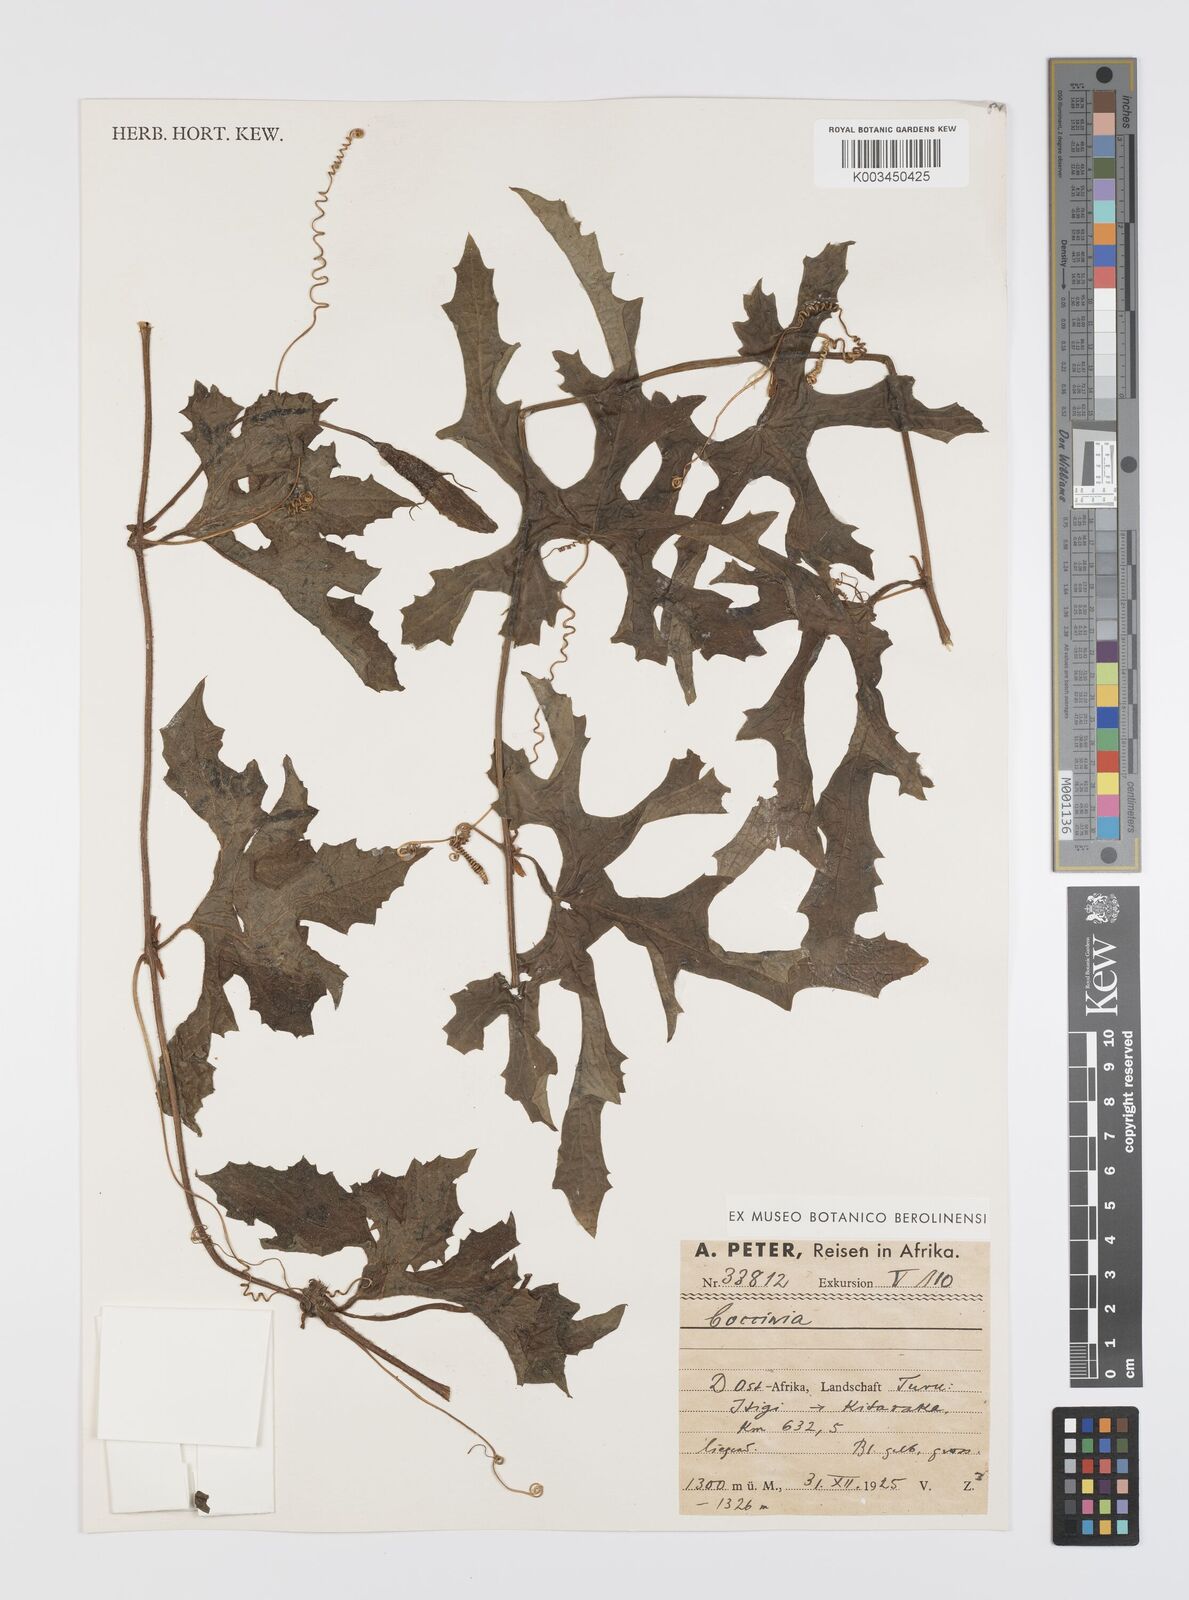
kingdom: Plantae
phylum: Tracheophyta
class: Magnoliopsida
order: Cucurbitales
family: Cucurbitaceae
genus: Peponium
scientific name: Peponium vogelii
